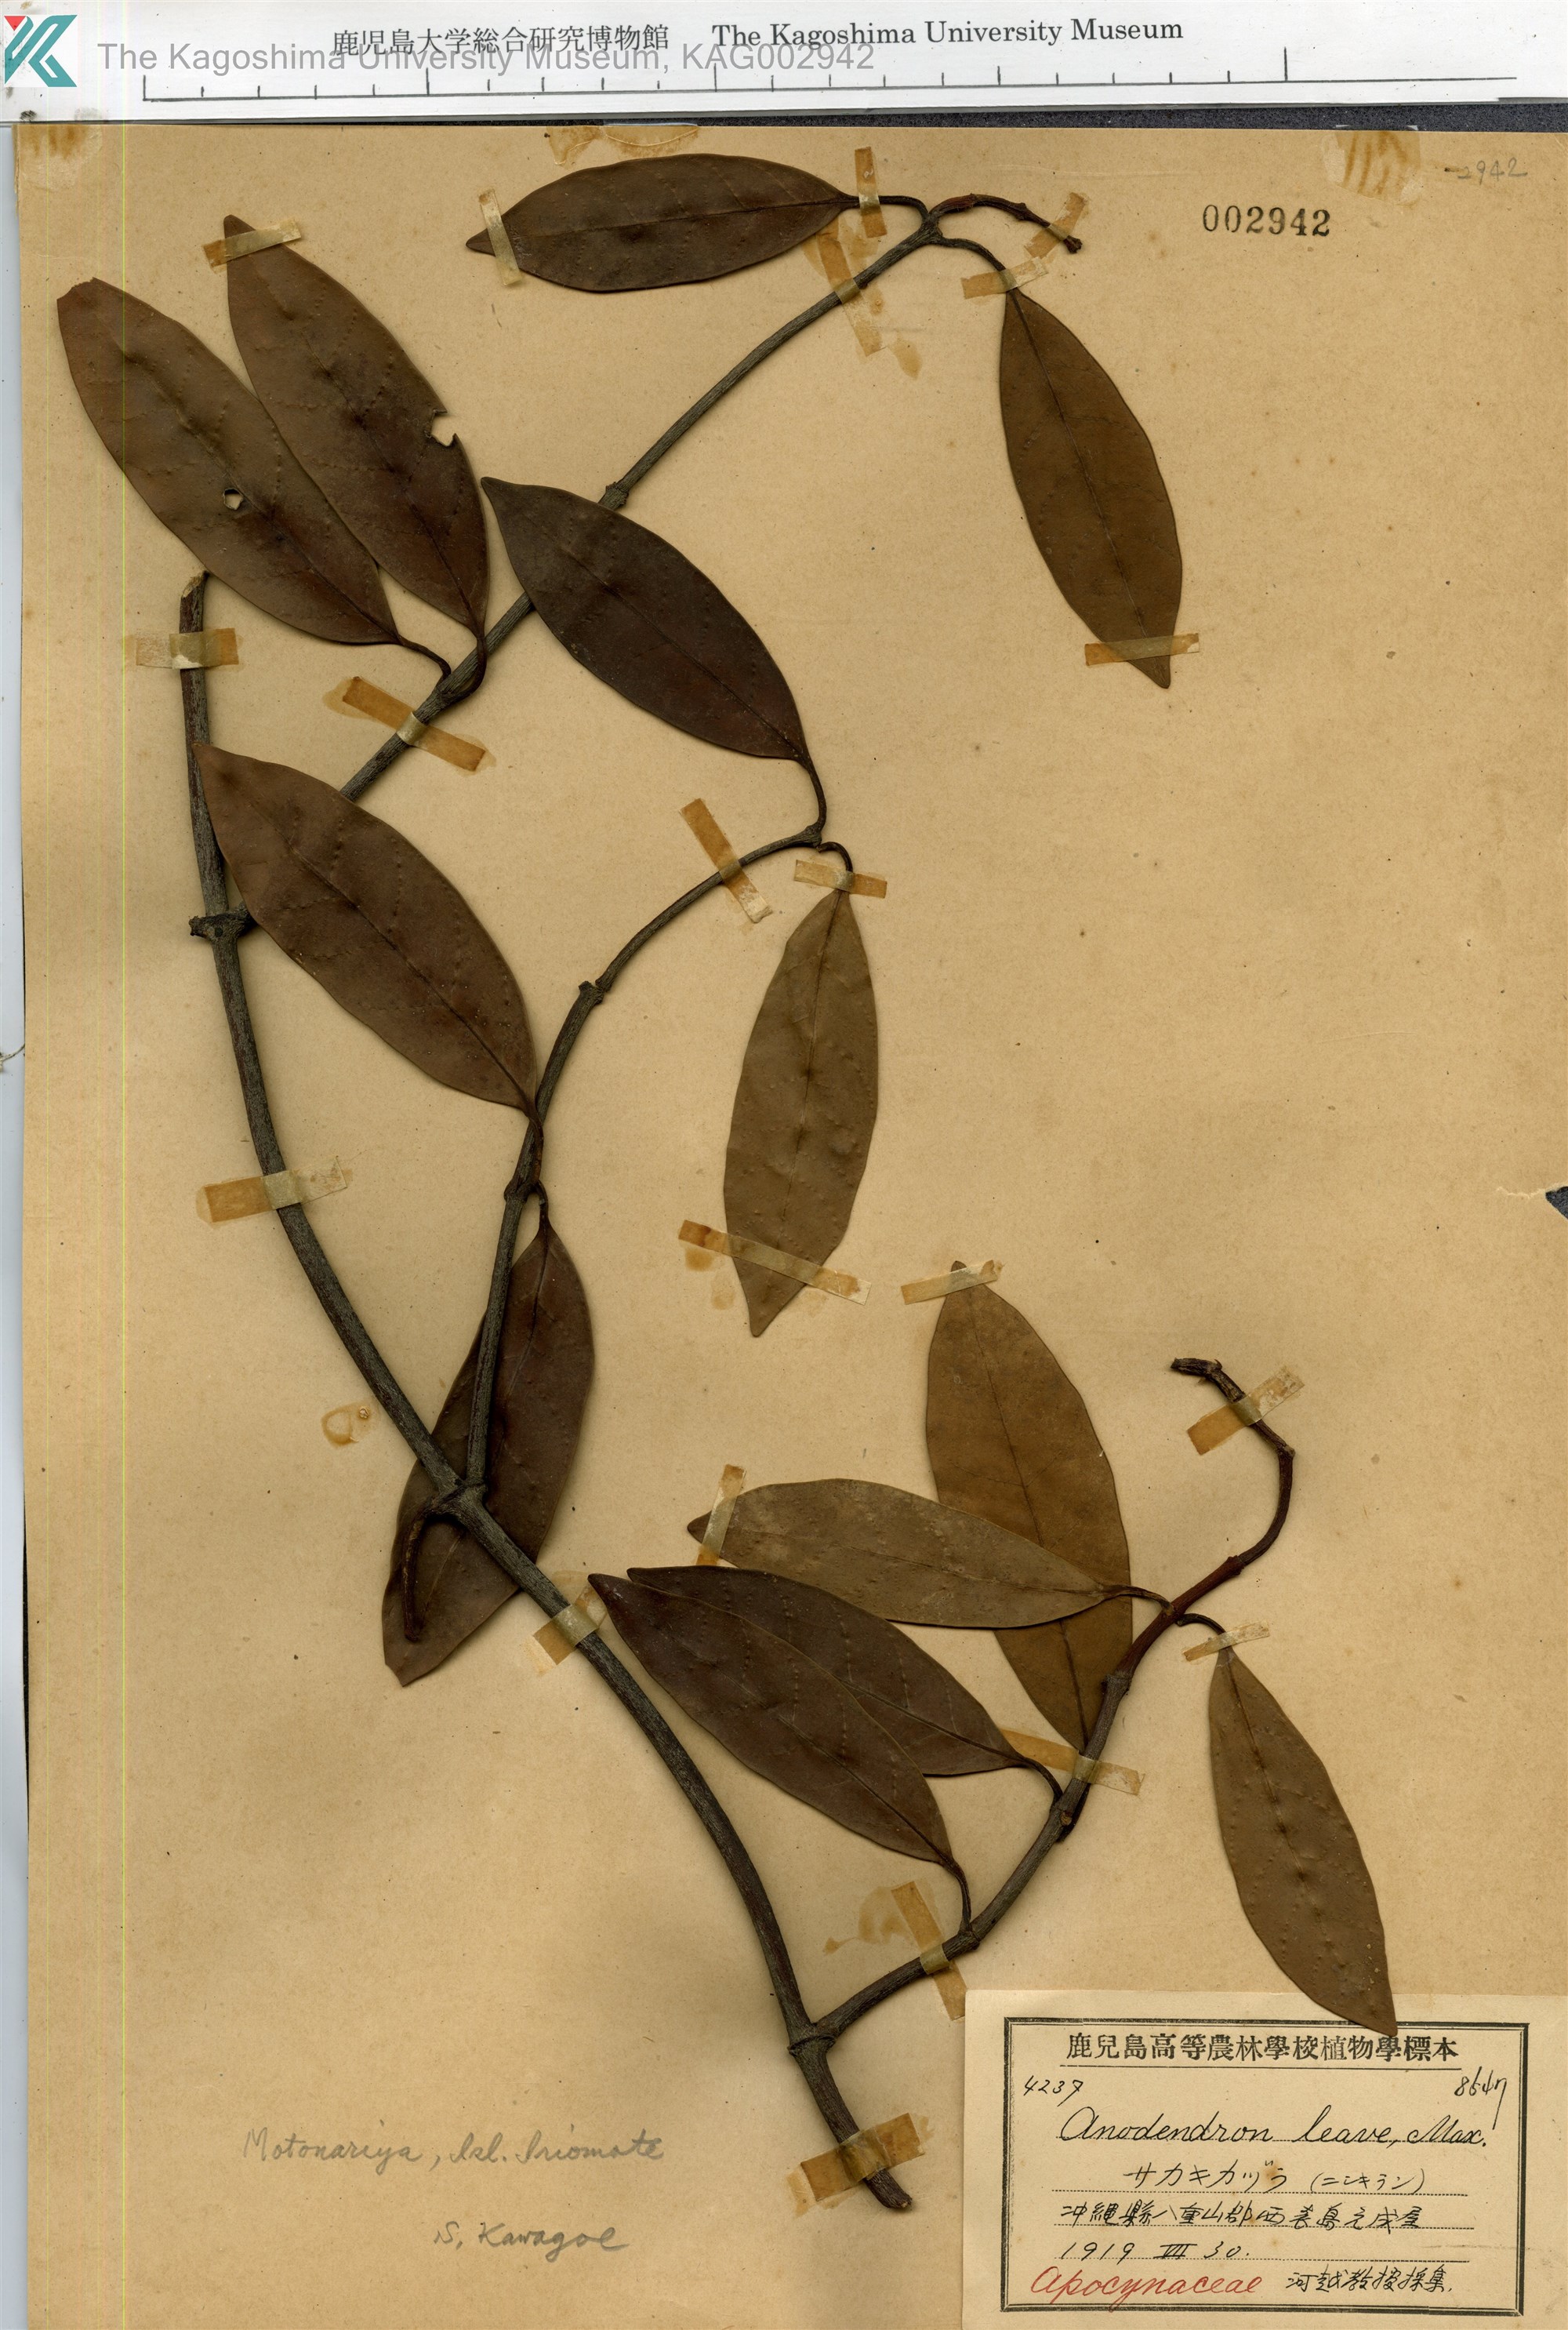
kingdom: Plantae
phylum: Tracheophyta
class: Magnoliopsida
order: Gentianales
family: Apocynaceae
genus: Anodendron
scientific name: Anodendron affine
